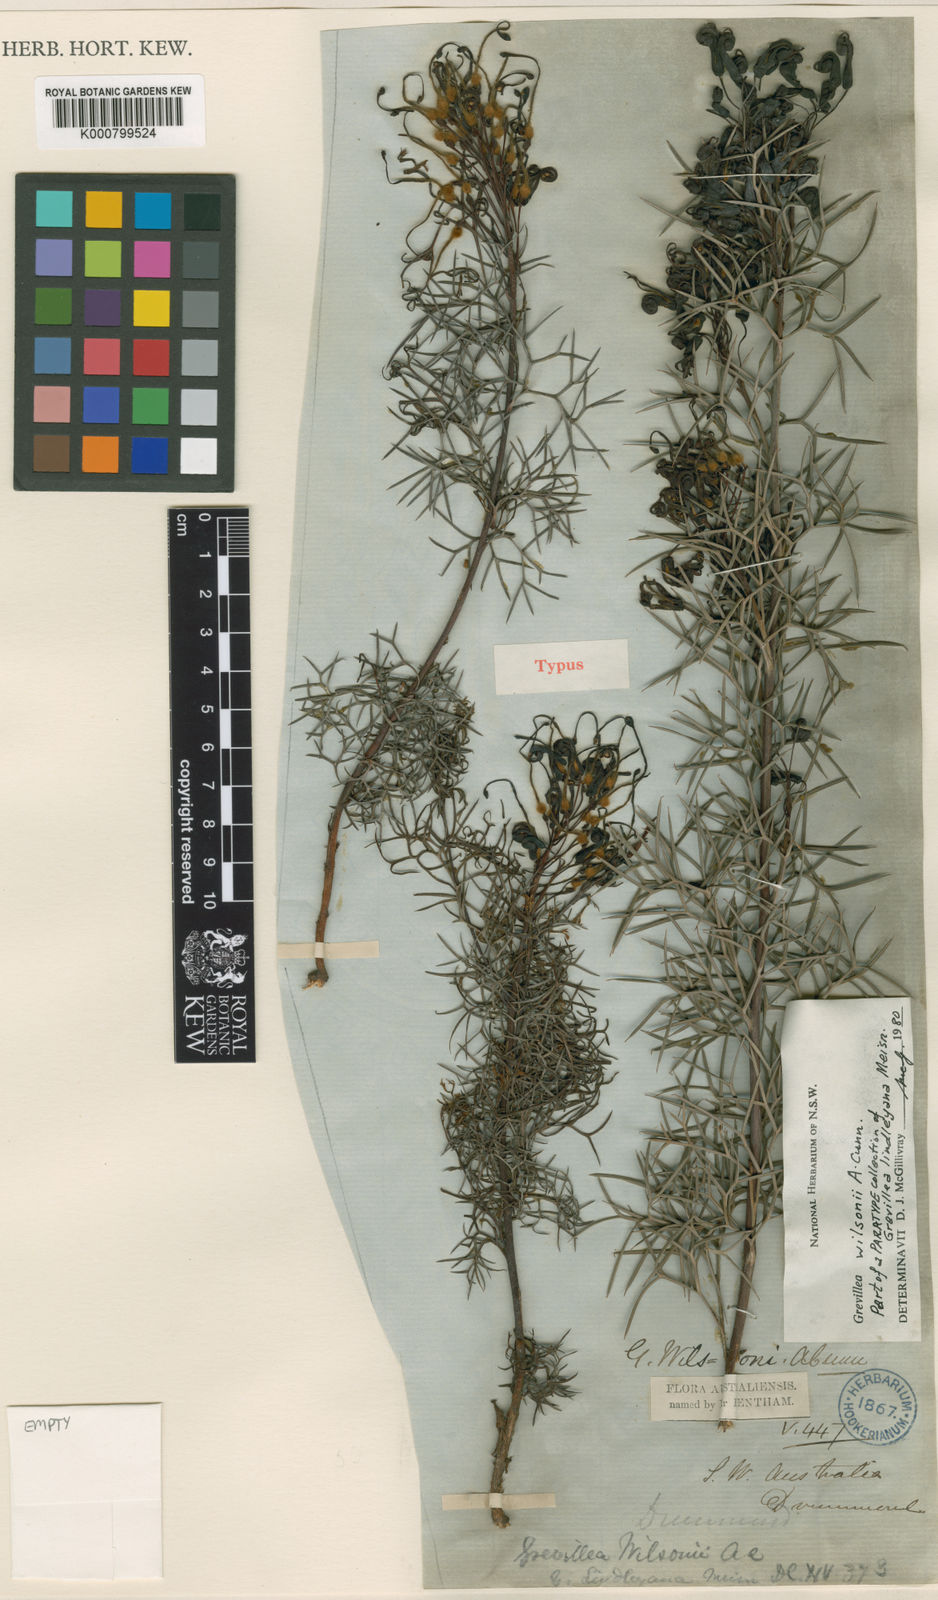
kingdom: Plantae
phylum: Tracheophyta
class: Magnoliopsida
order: Proteales
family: Proteaceae
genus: Grevillea
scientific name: Grevillea wilsonii
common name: Fire-wheel
